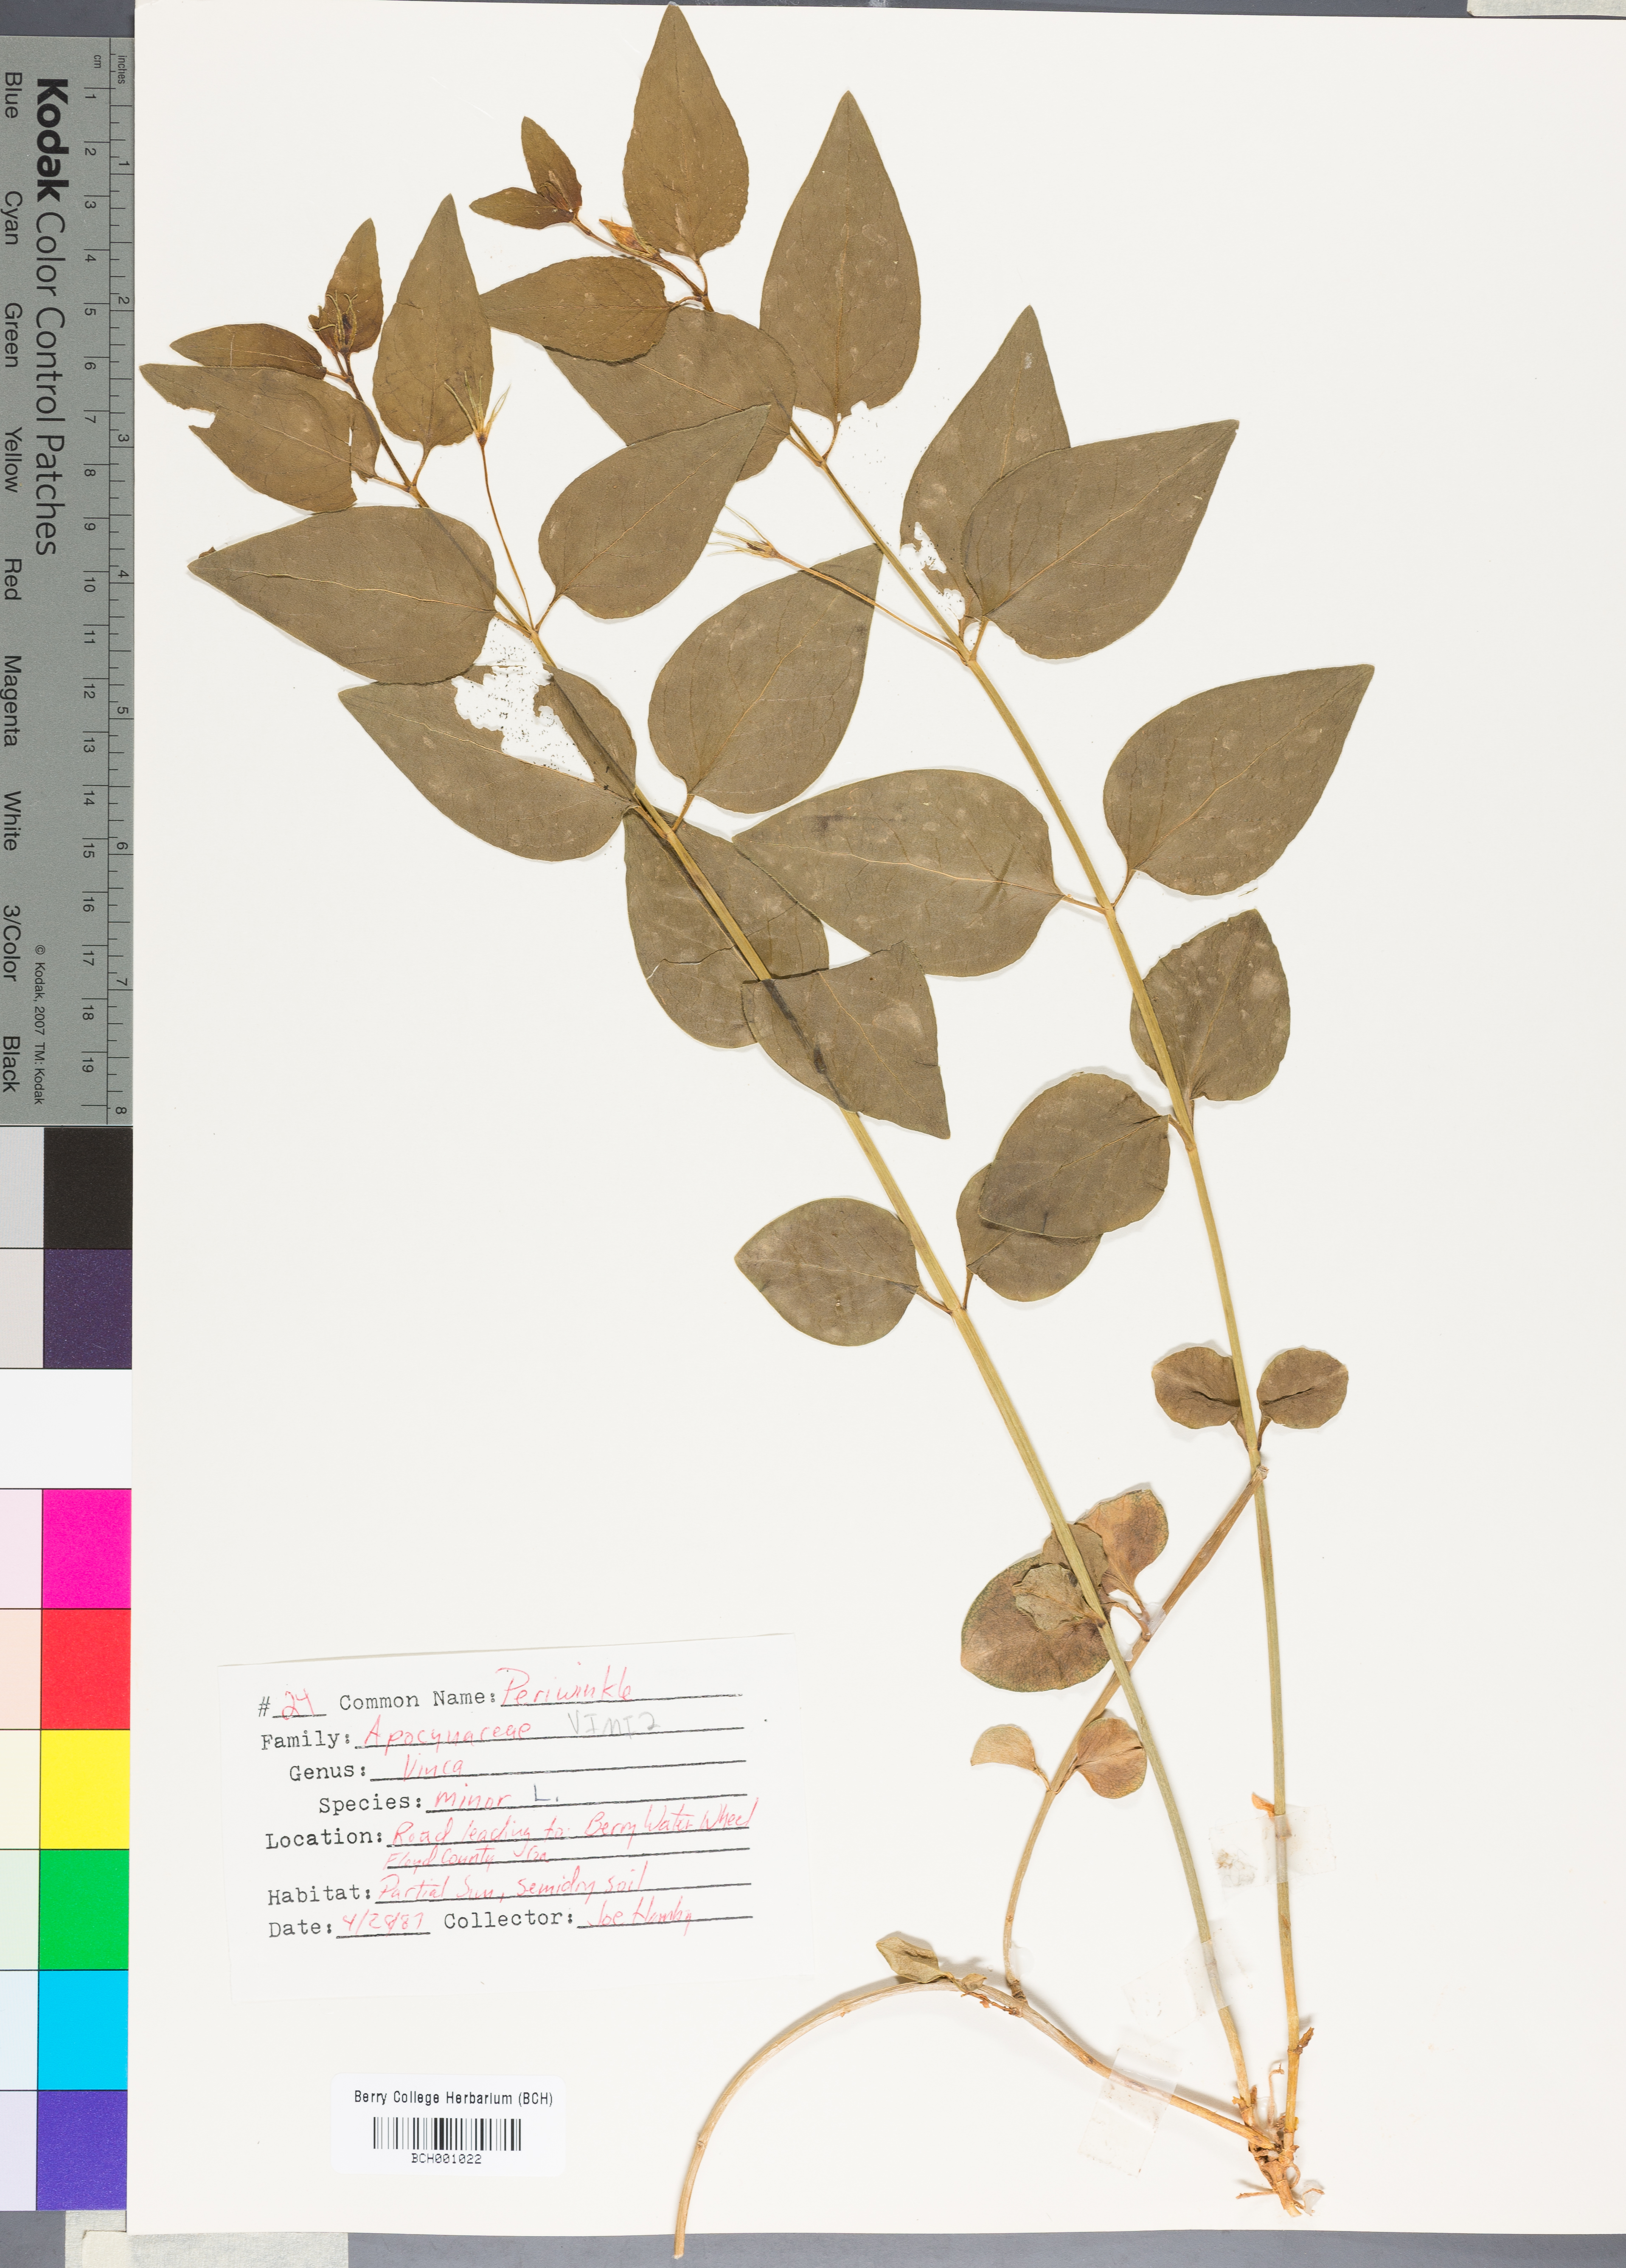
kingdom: Plantae
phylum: Tracheophyta
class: Magnoliopsida
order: Gentianales
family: Apocynaceae
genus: Vinca
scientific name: Vinca minor
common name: Lesser periwinkle
